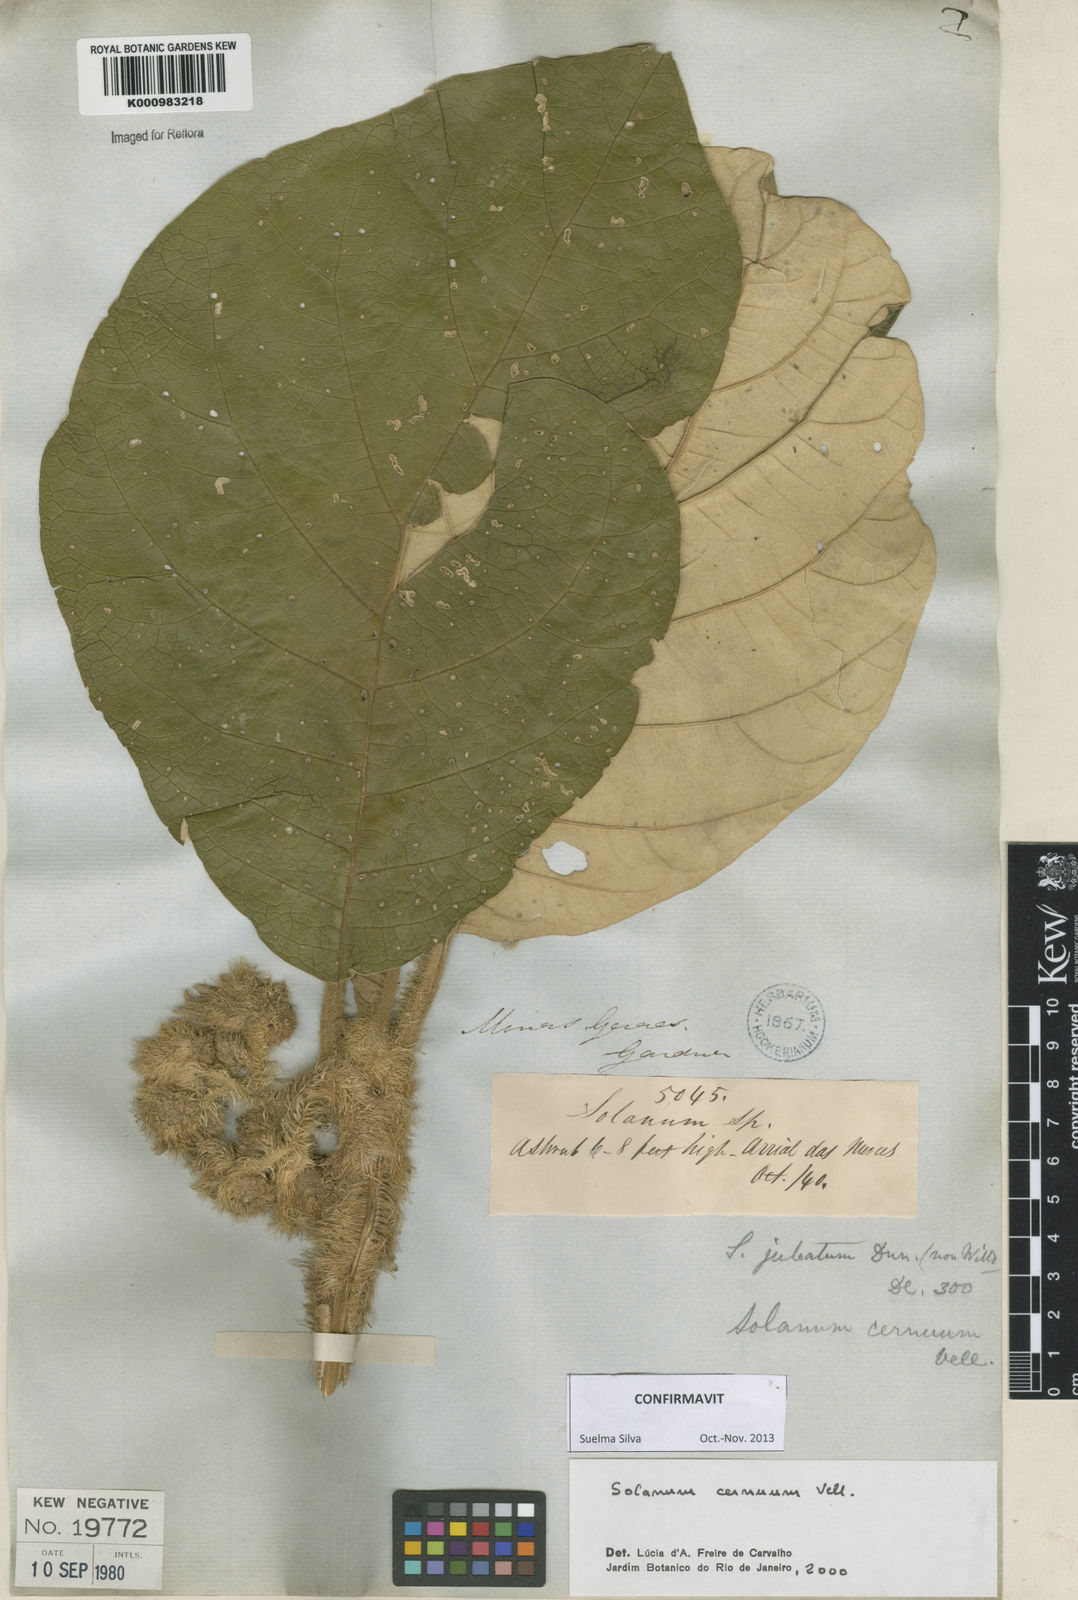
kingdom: Plantae
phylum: Tracheophyta
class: Magnoliopsida
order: Solanales
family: Solanaceae
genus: Solanum
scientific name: Solanum cernuum
